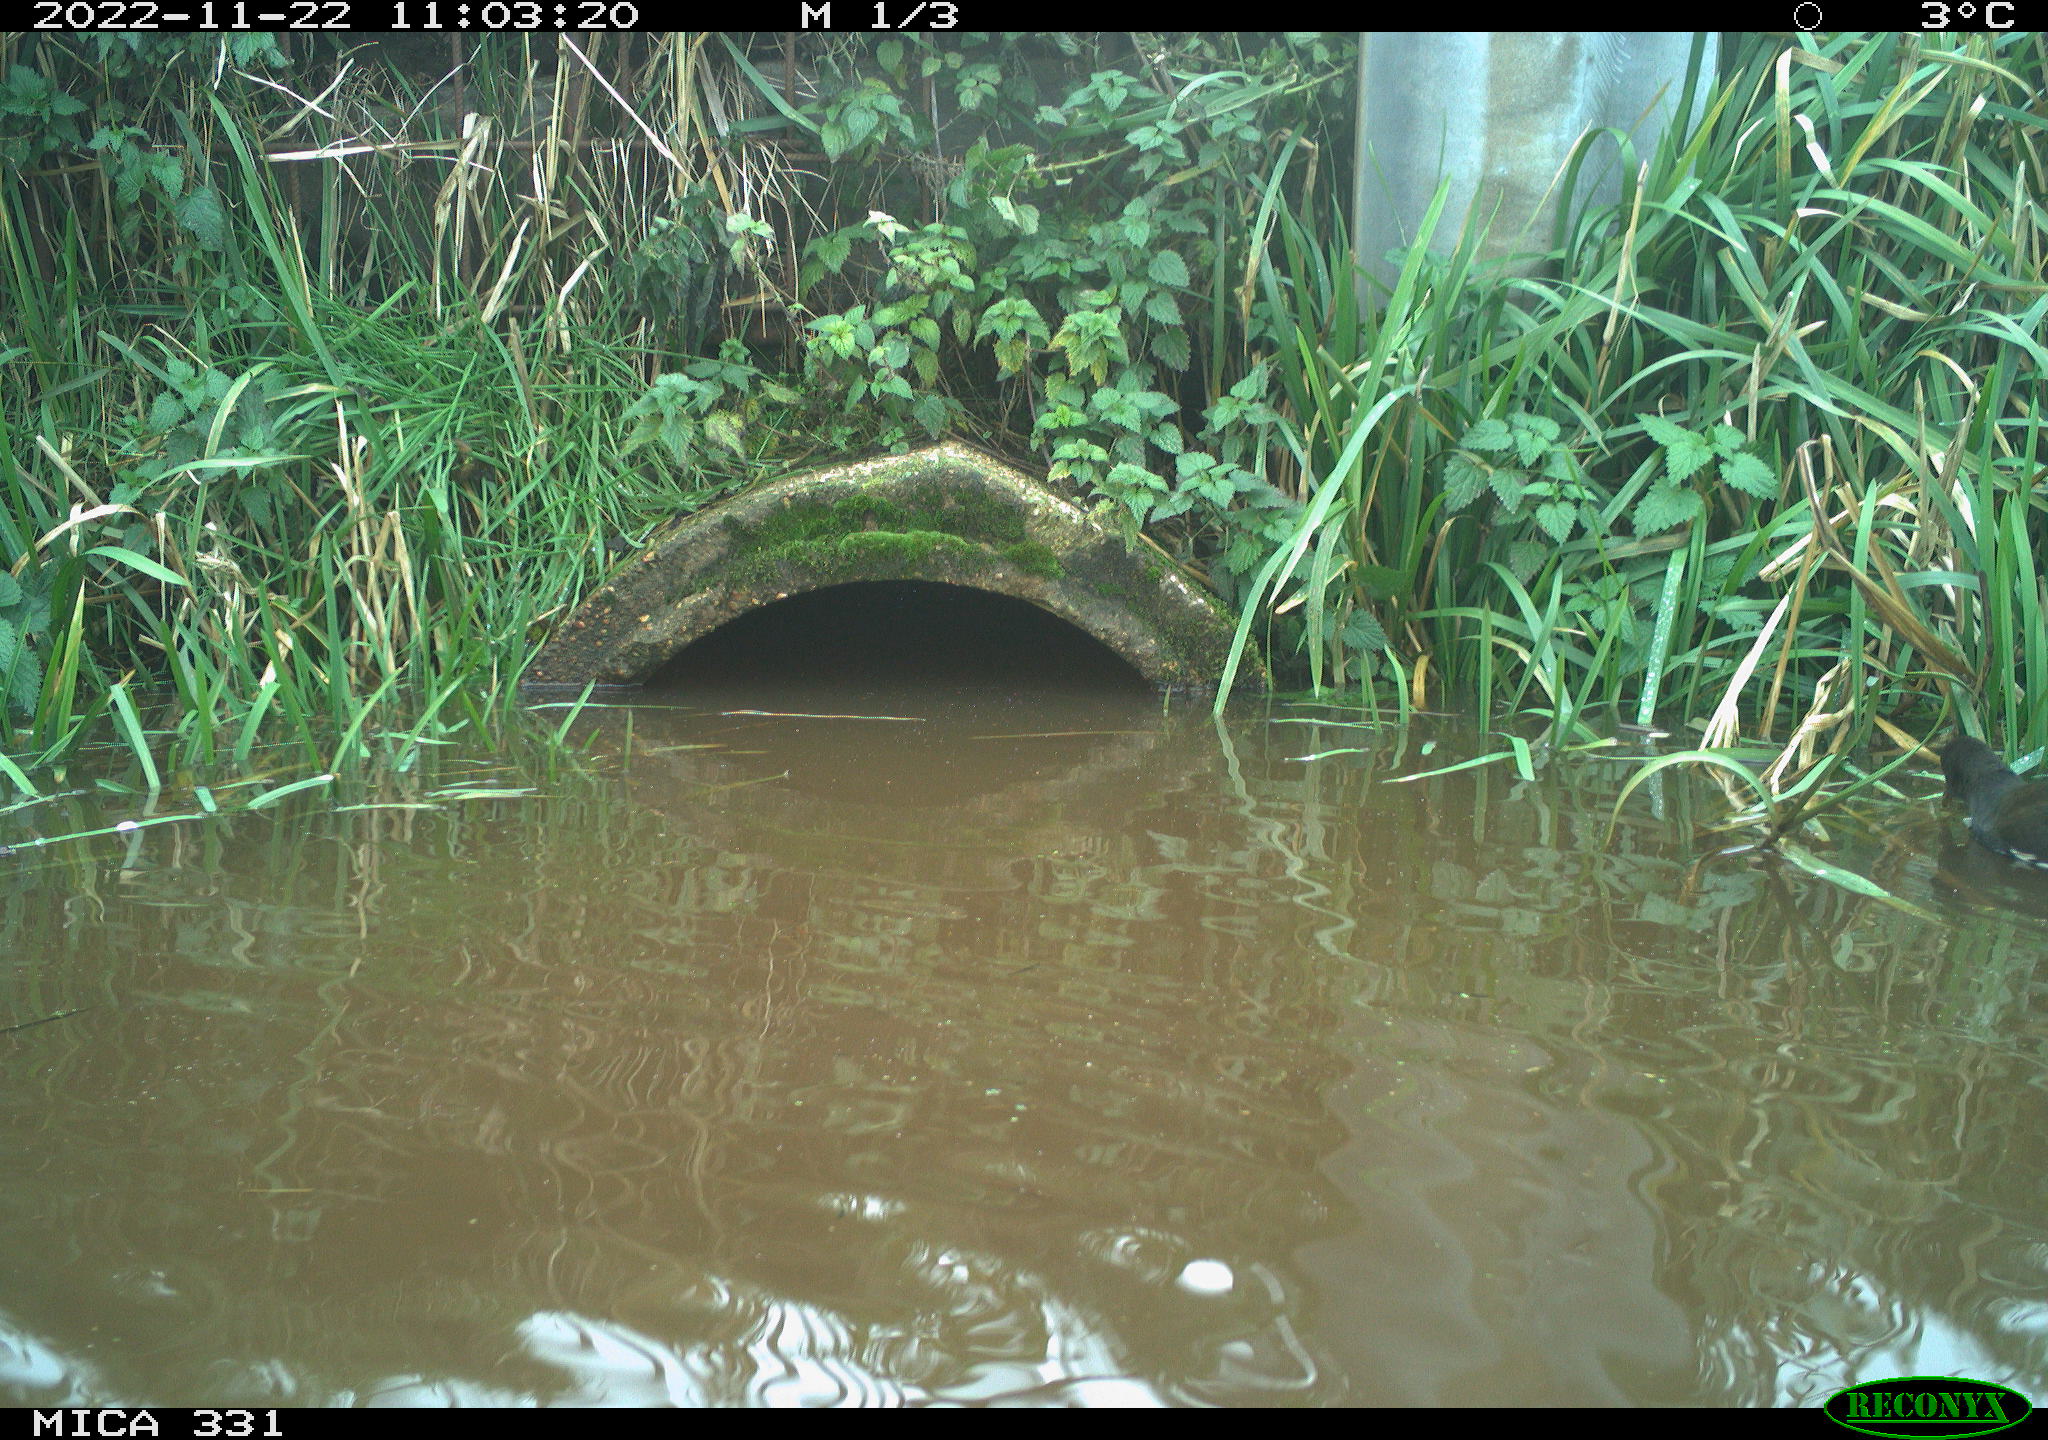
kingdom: Animalia
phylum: Chordata
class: Aves
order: Gruiformes
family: Rallidae
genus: Gallinula
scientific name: Gallinula chloropus
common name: Common moorhen
